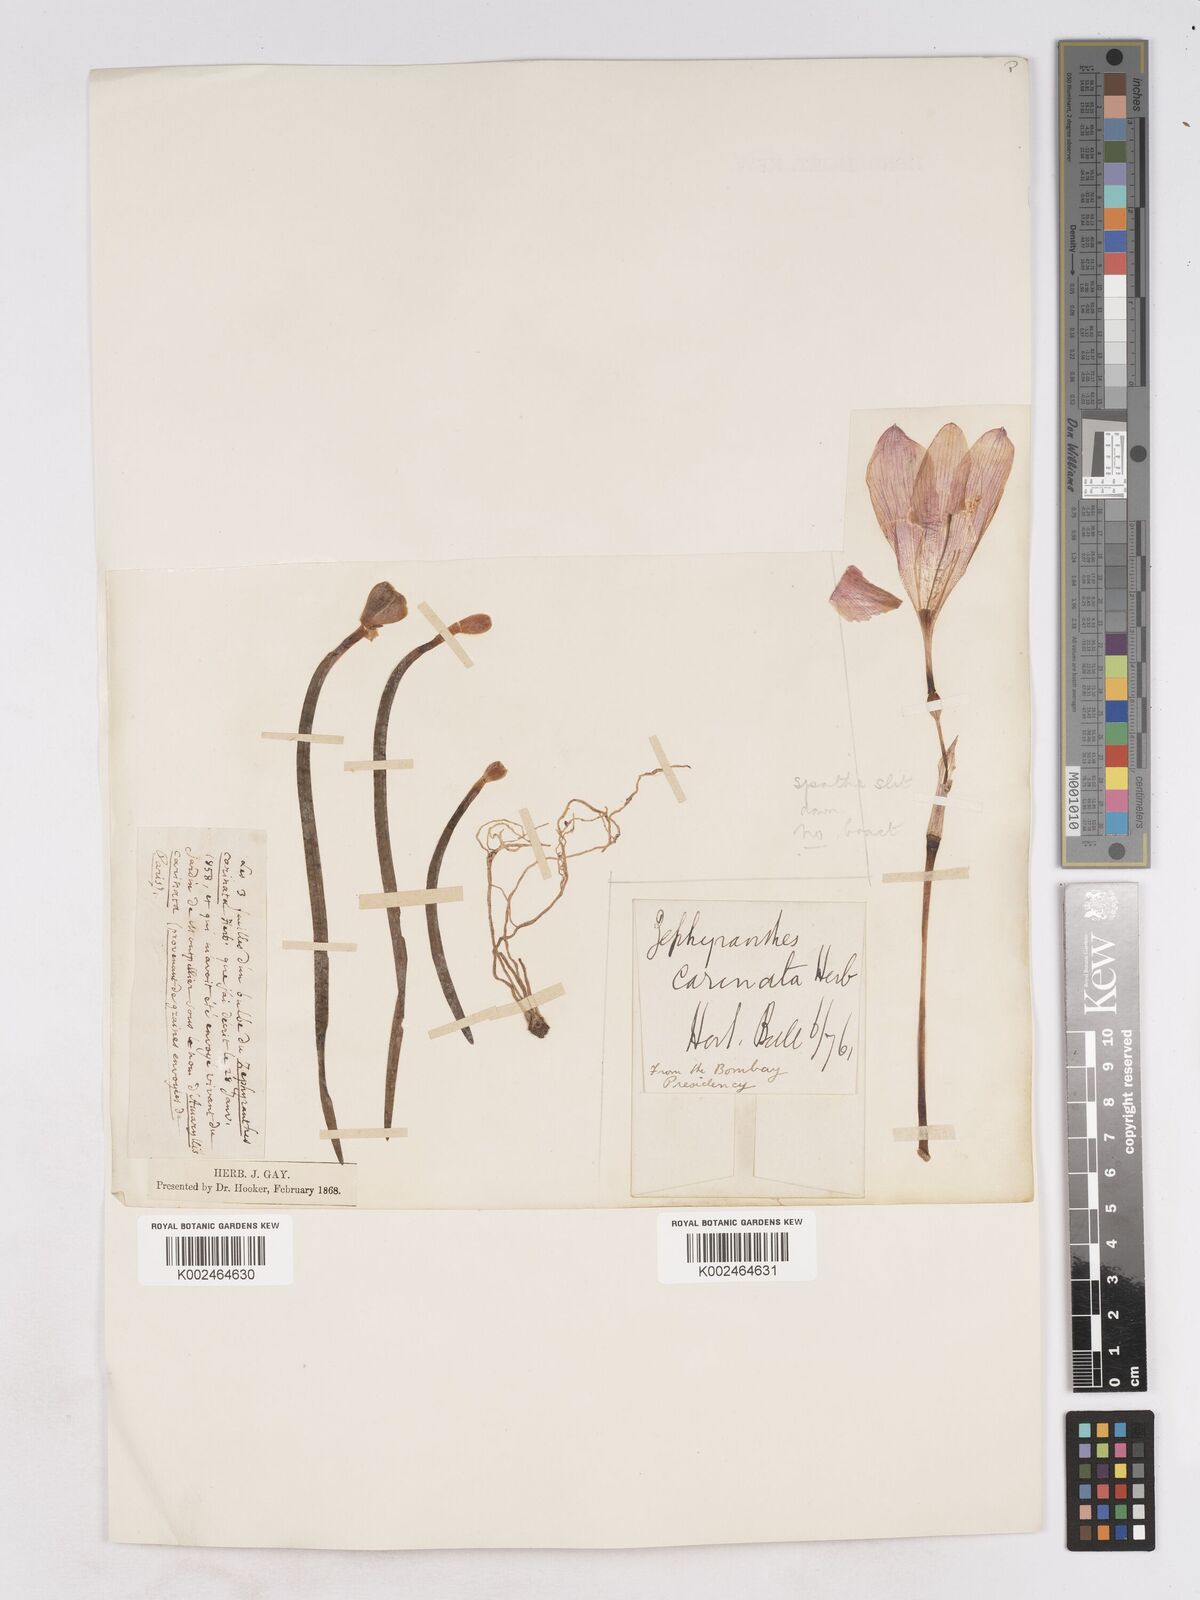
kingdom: Plantae
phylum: Tracheophyta
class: Liliopsida
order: Asparagales
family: Amaryllidaceae
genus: Zephyranthes
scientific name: Zephyranthes minuta
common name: Pink rain lily
